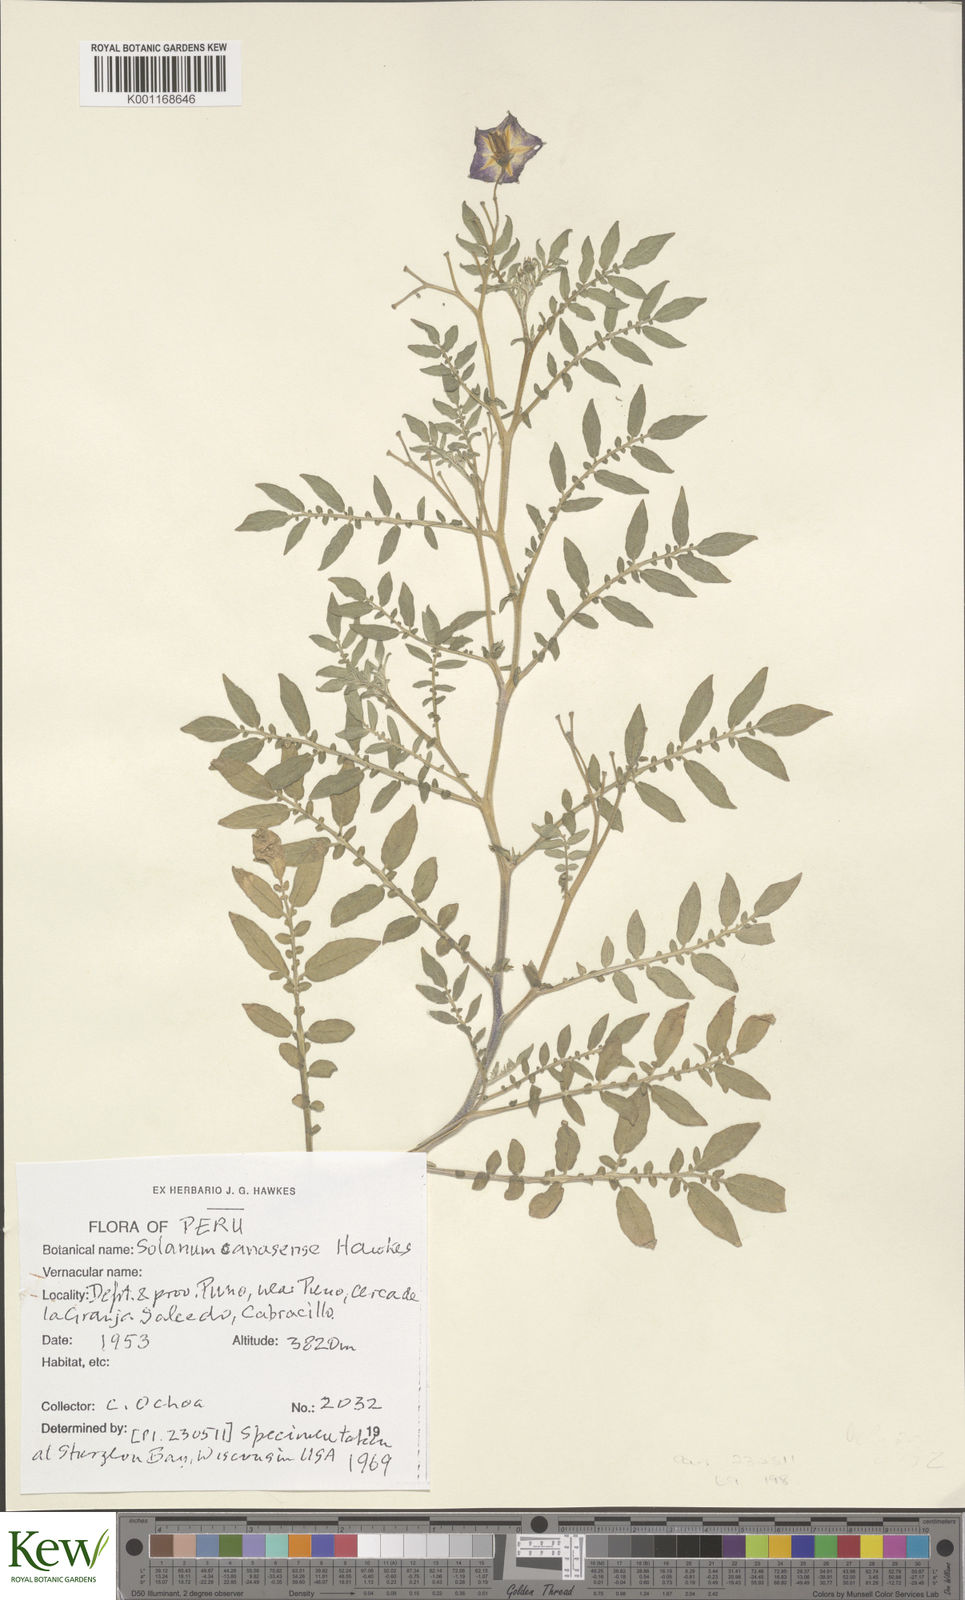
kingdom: Plantae
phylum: Tracheophyta
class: Magnoliopsida
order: Solanales
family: Solanaceae
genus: Solanum
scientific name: Solanum candolleanum
